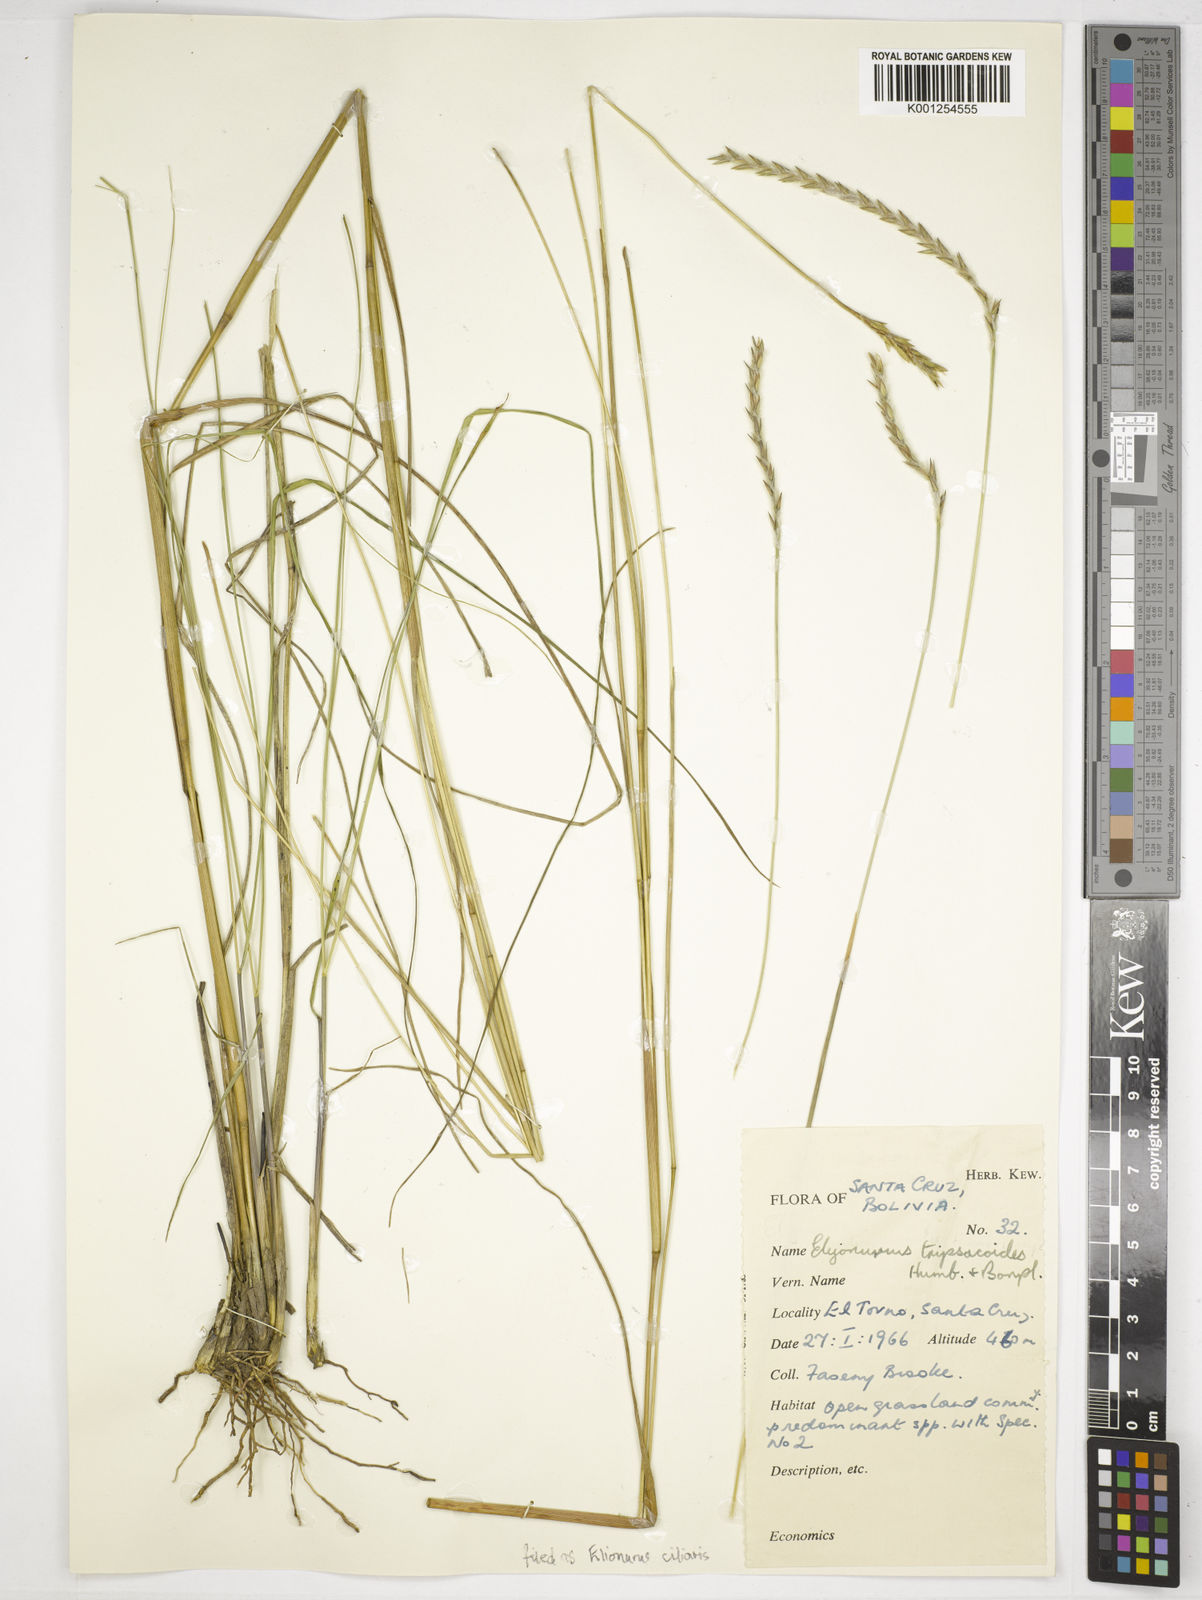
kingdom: Plantae
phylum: Tracheophyta
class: Liliopsida
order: Poales
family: Poaceae
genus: Elionurus
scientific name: Elionurus ciliaris
